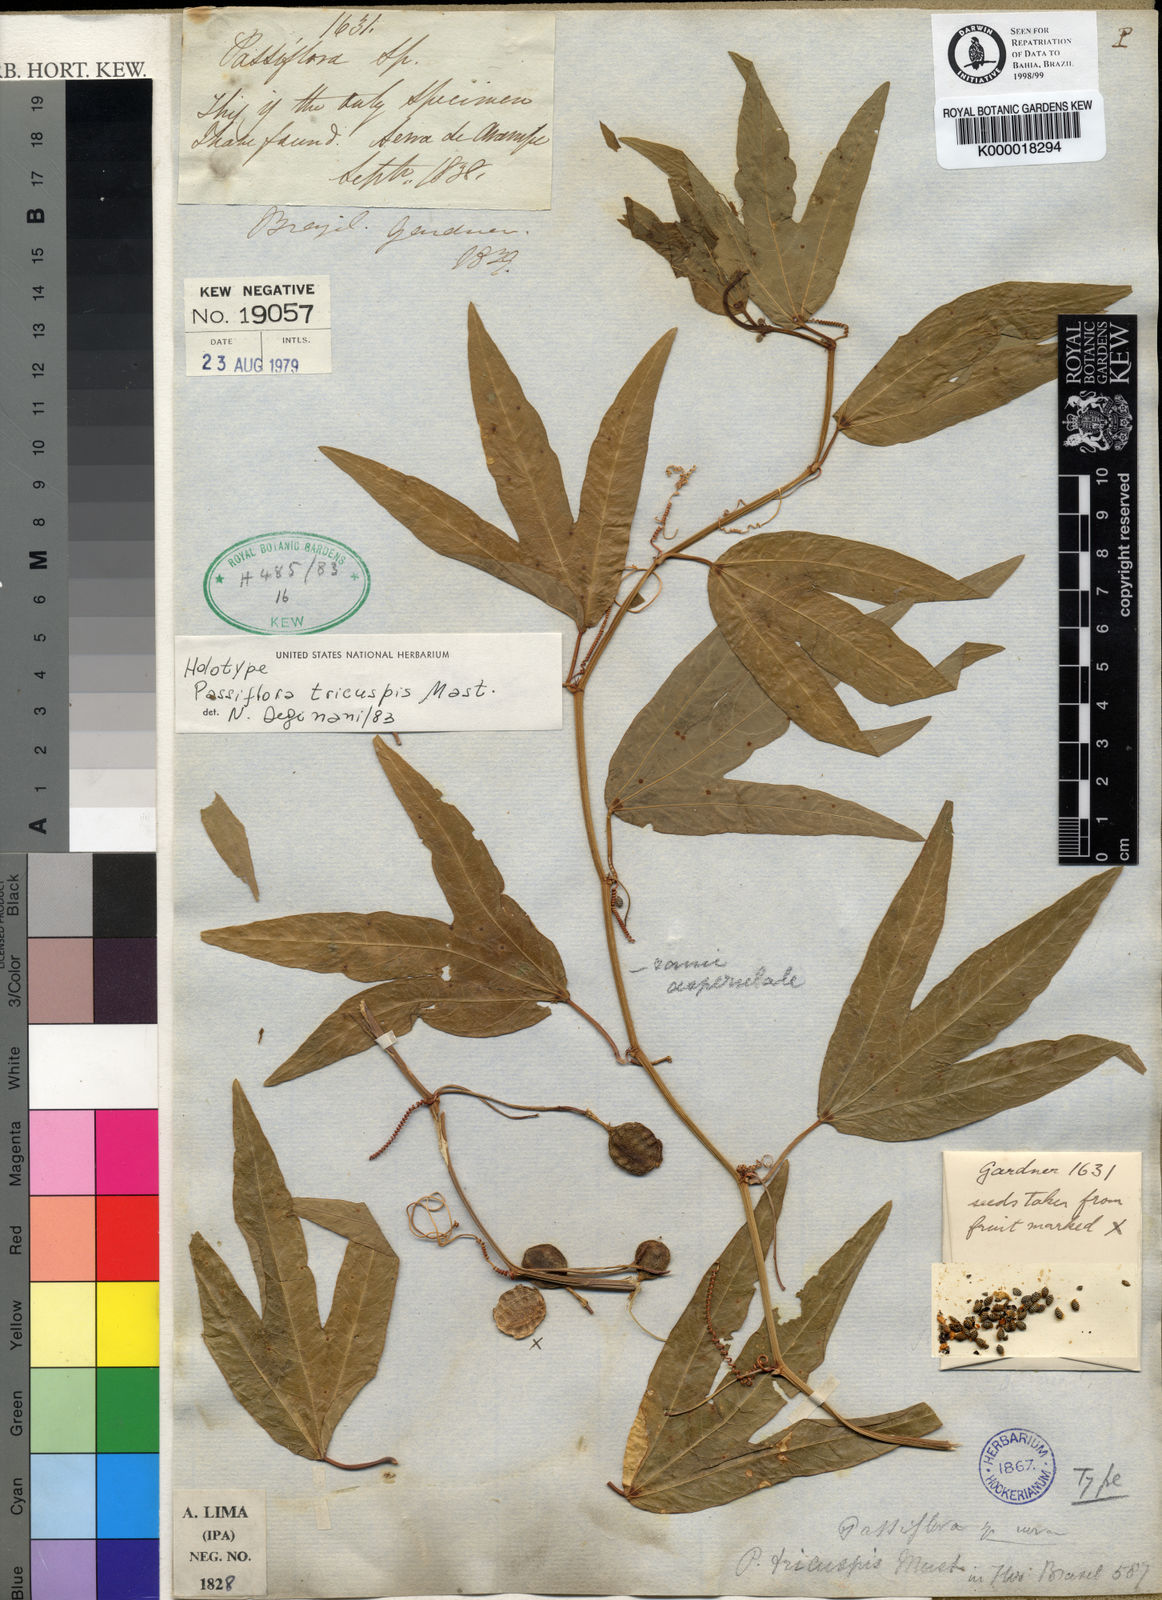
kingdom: Plantae
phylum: Tracheophyta
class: Magnoliopsida
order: Malpighiales
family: Passifloraceae
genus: Passiflora
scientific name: Passiflora tricuspis
